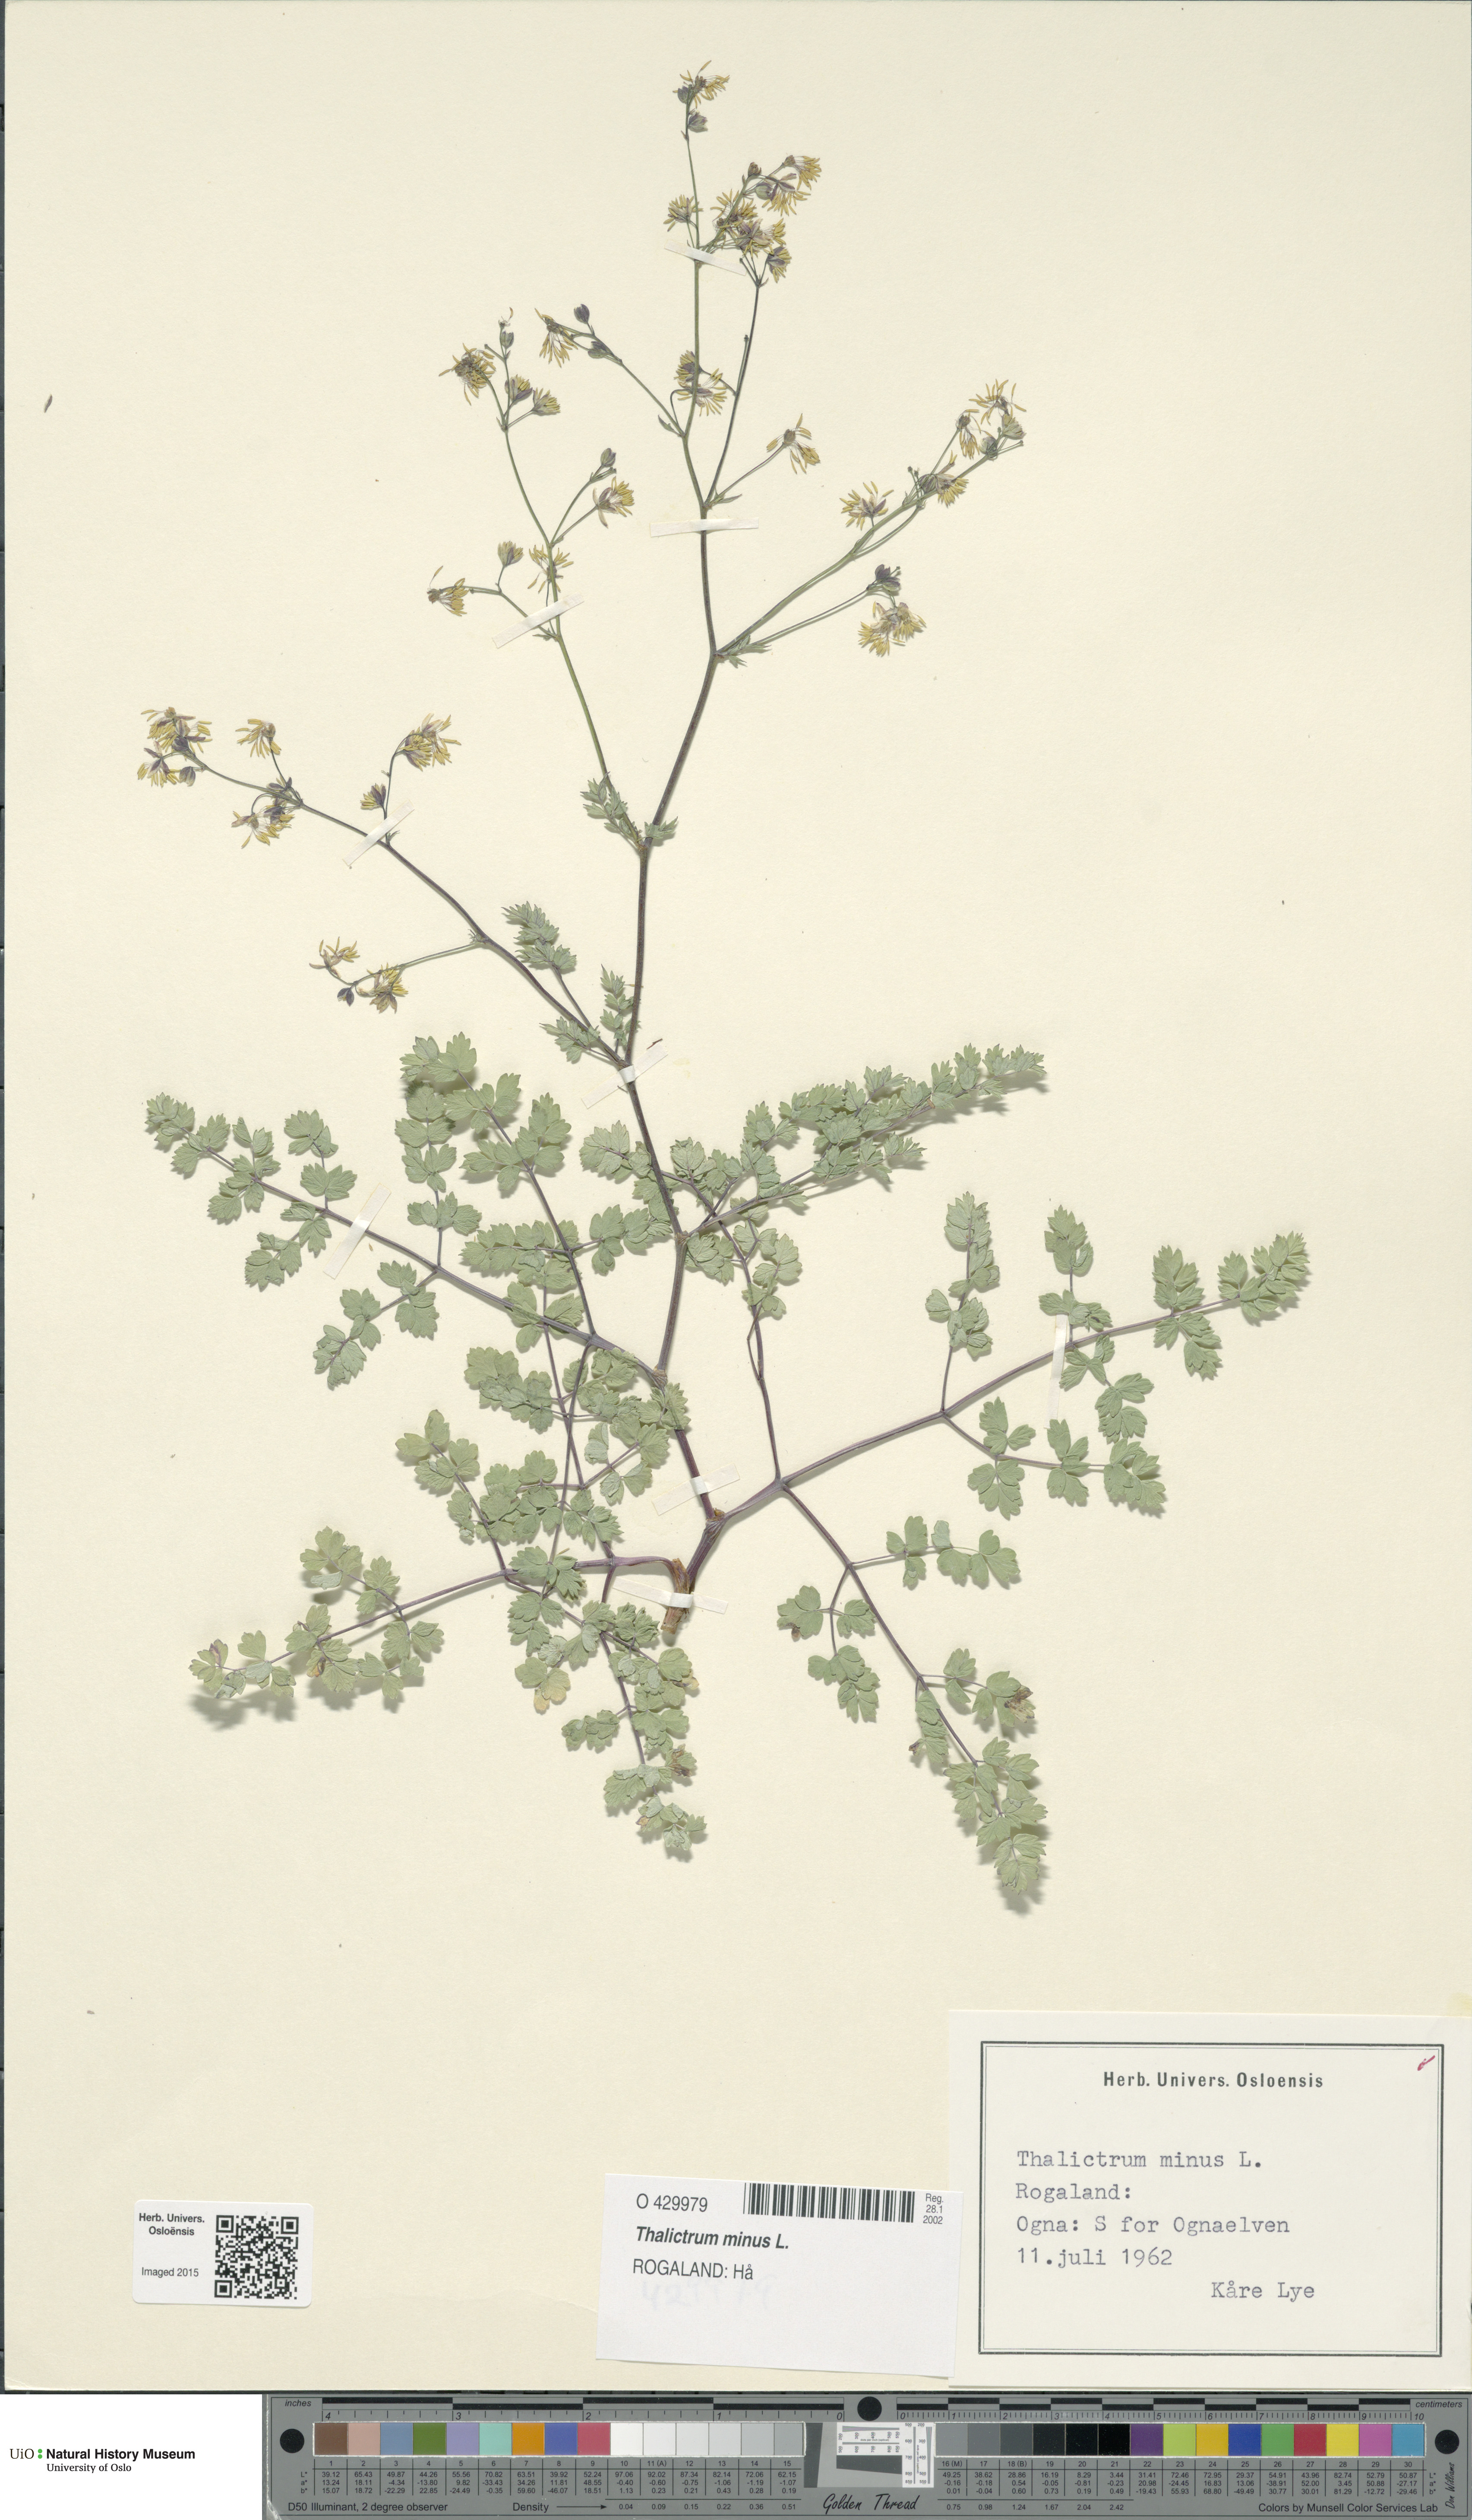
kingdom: Plantae
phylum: Tracheophyta
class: Magnoliopsida
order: Ranunculales
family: Ranunculaceae
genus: Thalictrum
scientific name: Thalictrum minus
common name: Lesser meadow-rue
